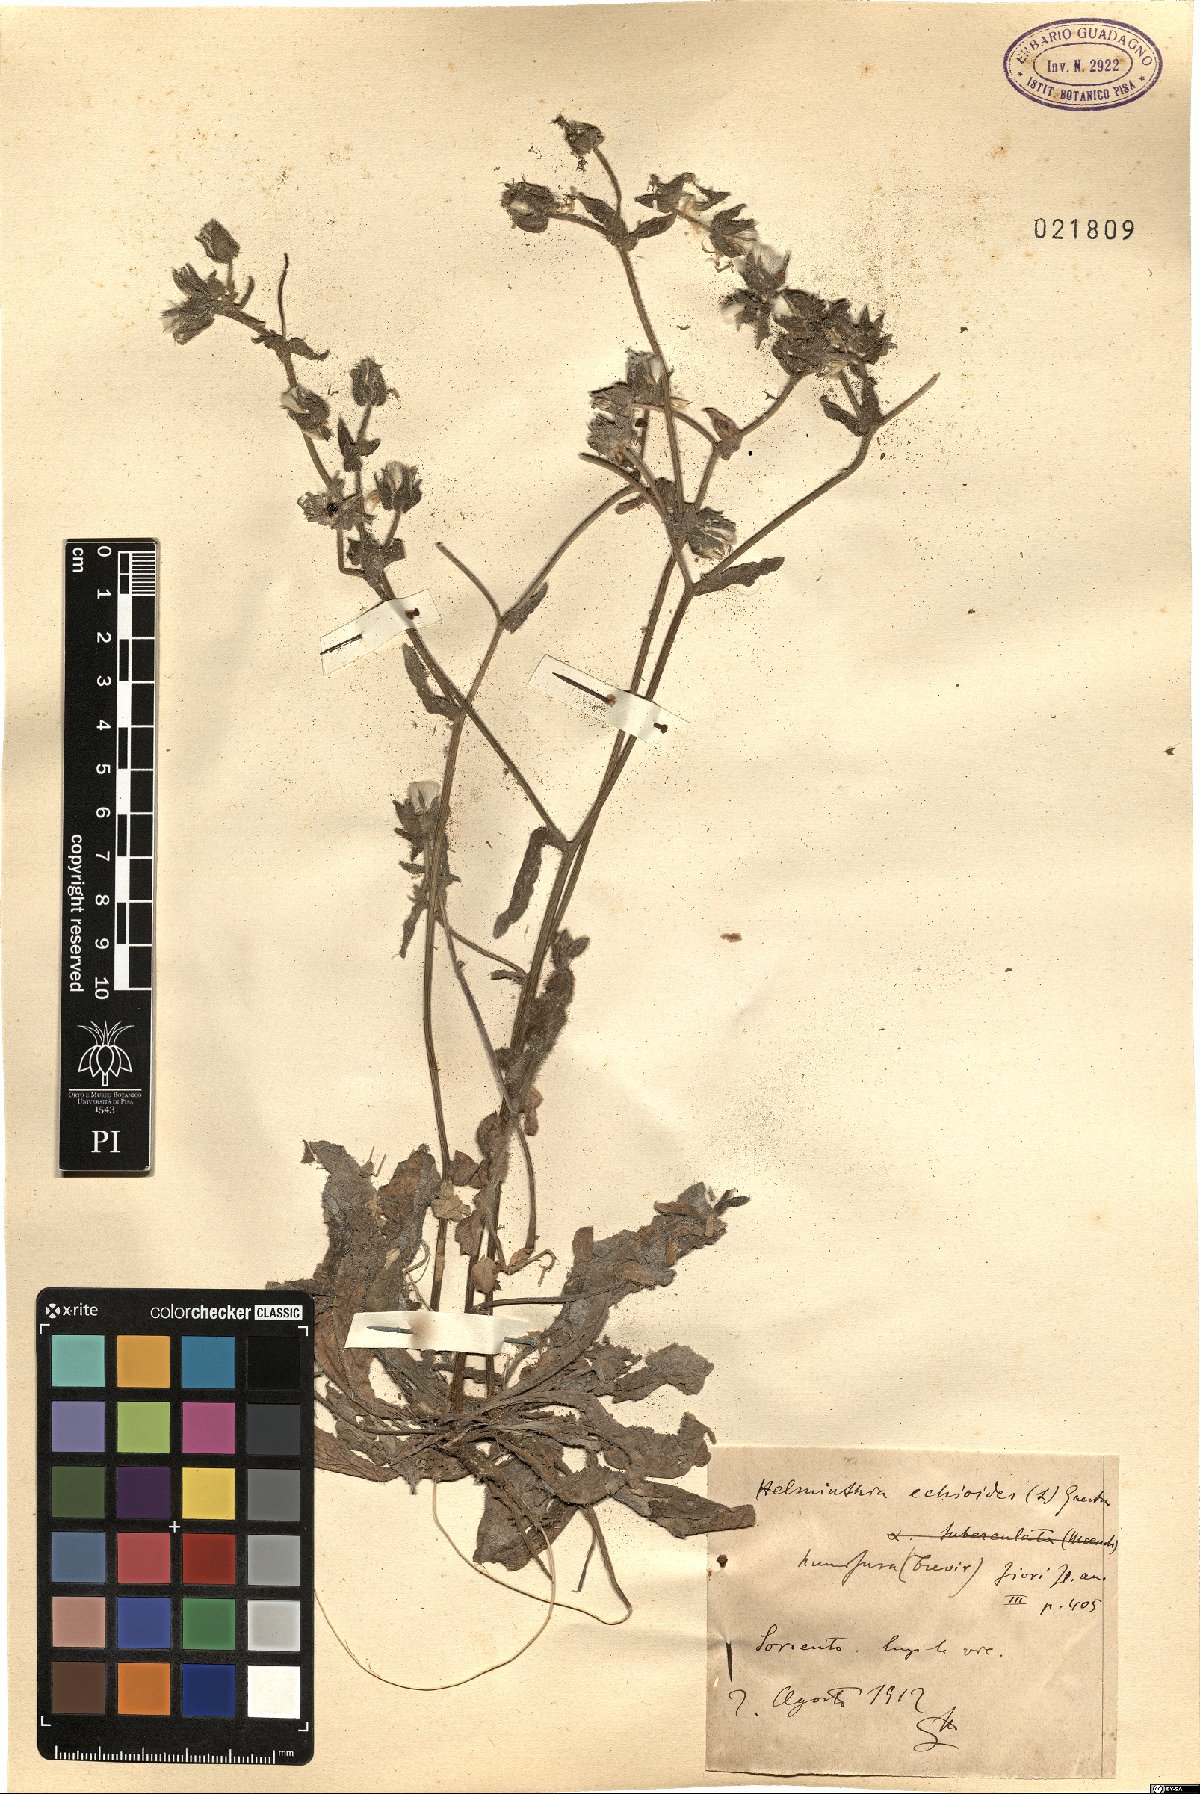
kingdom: Plantae
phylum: Tracheophyta
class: Magnoliopsida
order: Asterales
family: Asteraceae
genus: Helminthotheca
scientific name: Helminthotheca echioides
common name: Ox-tongue
